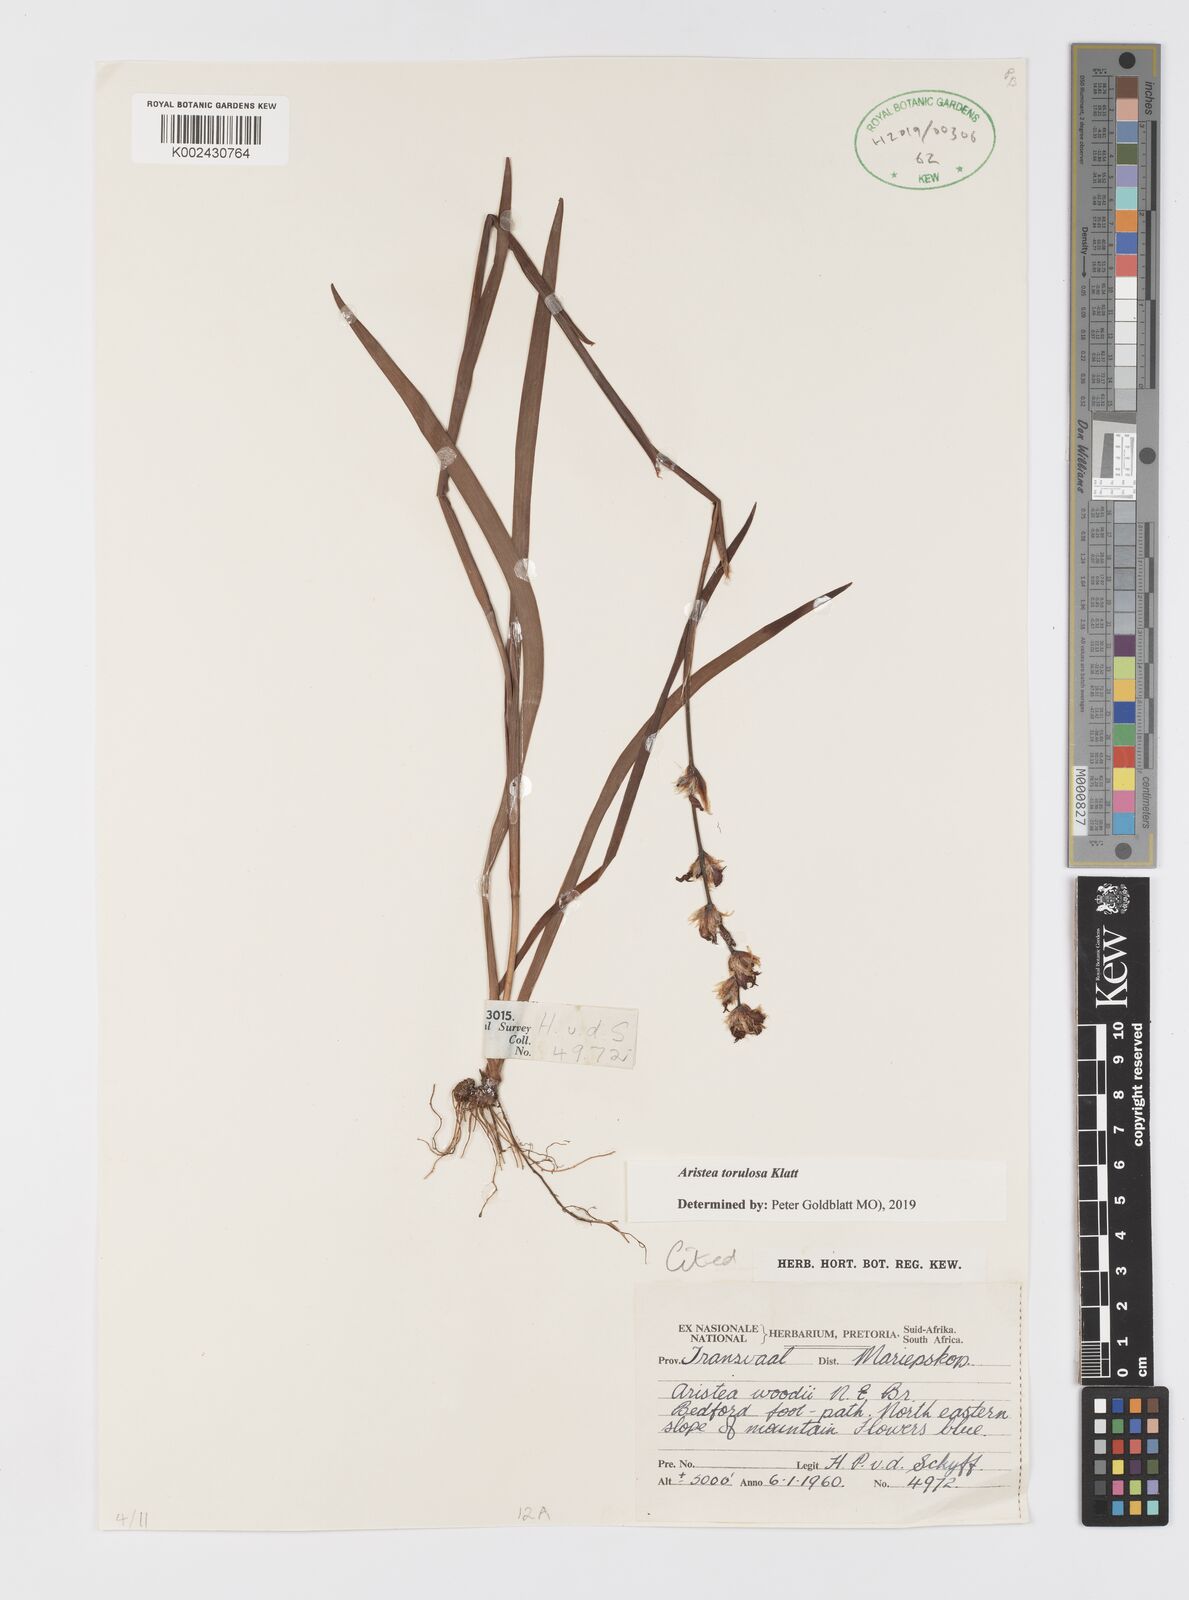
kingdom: Plantae
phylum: Tracheophyta
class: Liliopsida
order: Asparagales
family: Iridaceae
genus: Aristea
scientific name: Aristea torulosa
